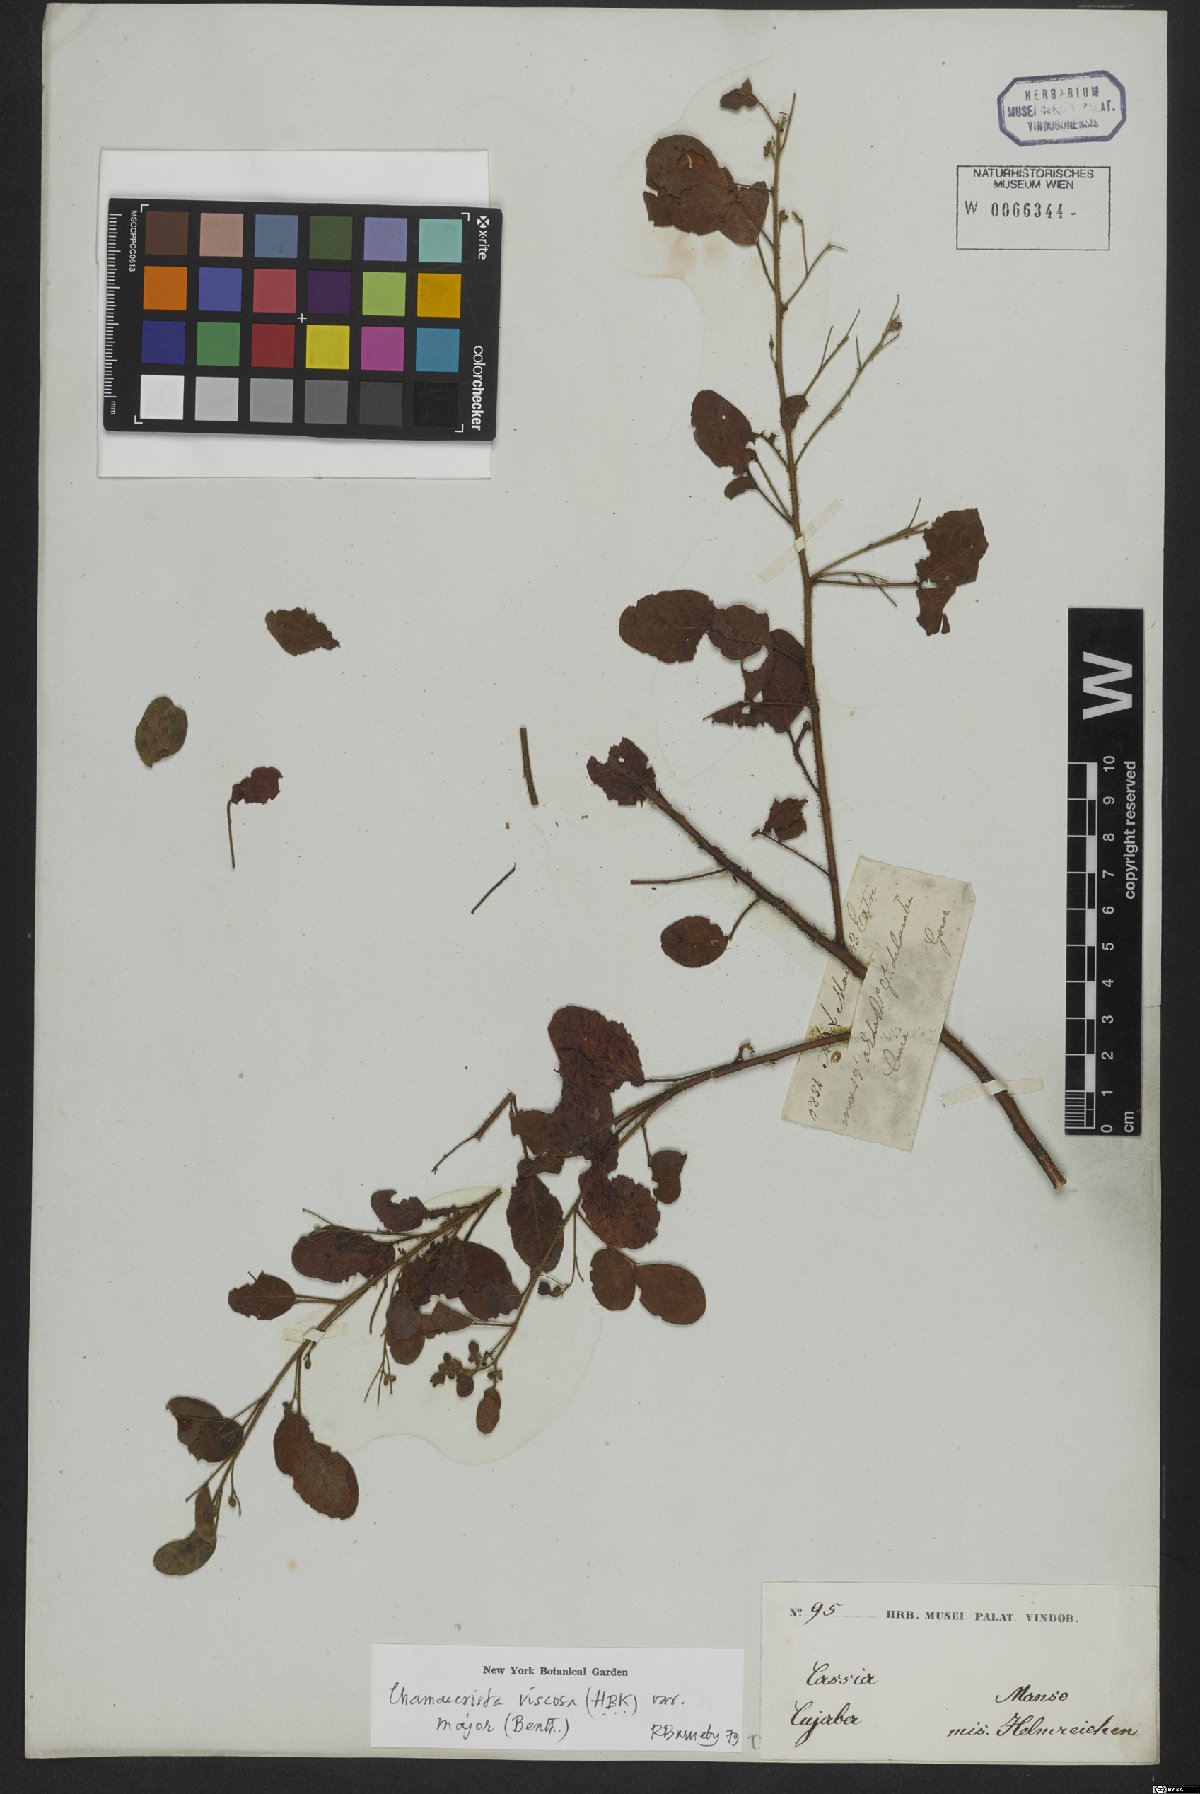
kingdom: Plantae
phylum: Tracheophyta
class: Magnoliopsida
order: Fabales
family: Fabaceae
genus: Chamaecrista
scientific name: Chamaecrista viscosa
